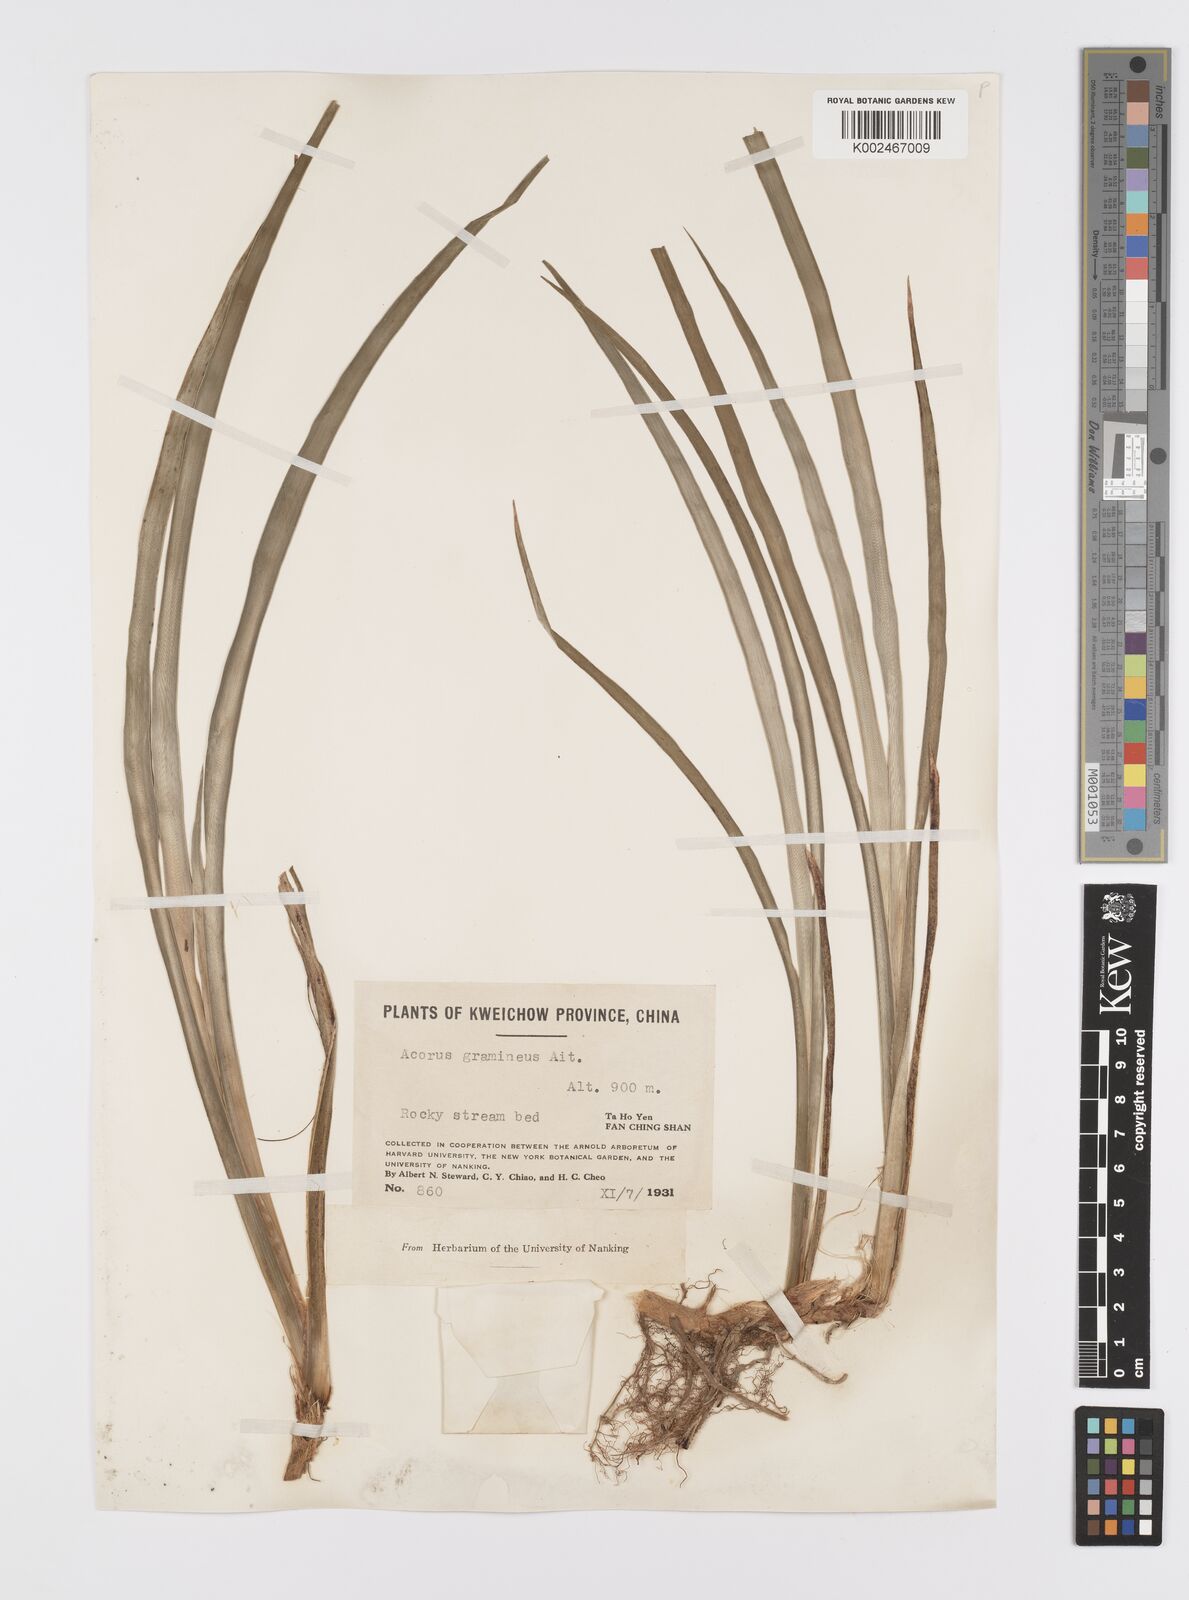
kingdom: Plantae
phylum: Tracheophyta
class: Liliopsida
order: Acorales
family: Acoraceae
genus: Acorus
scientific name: Acorus gramineus
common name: Slender sweet-flag
